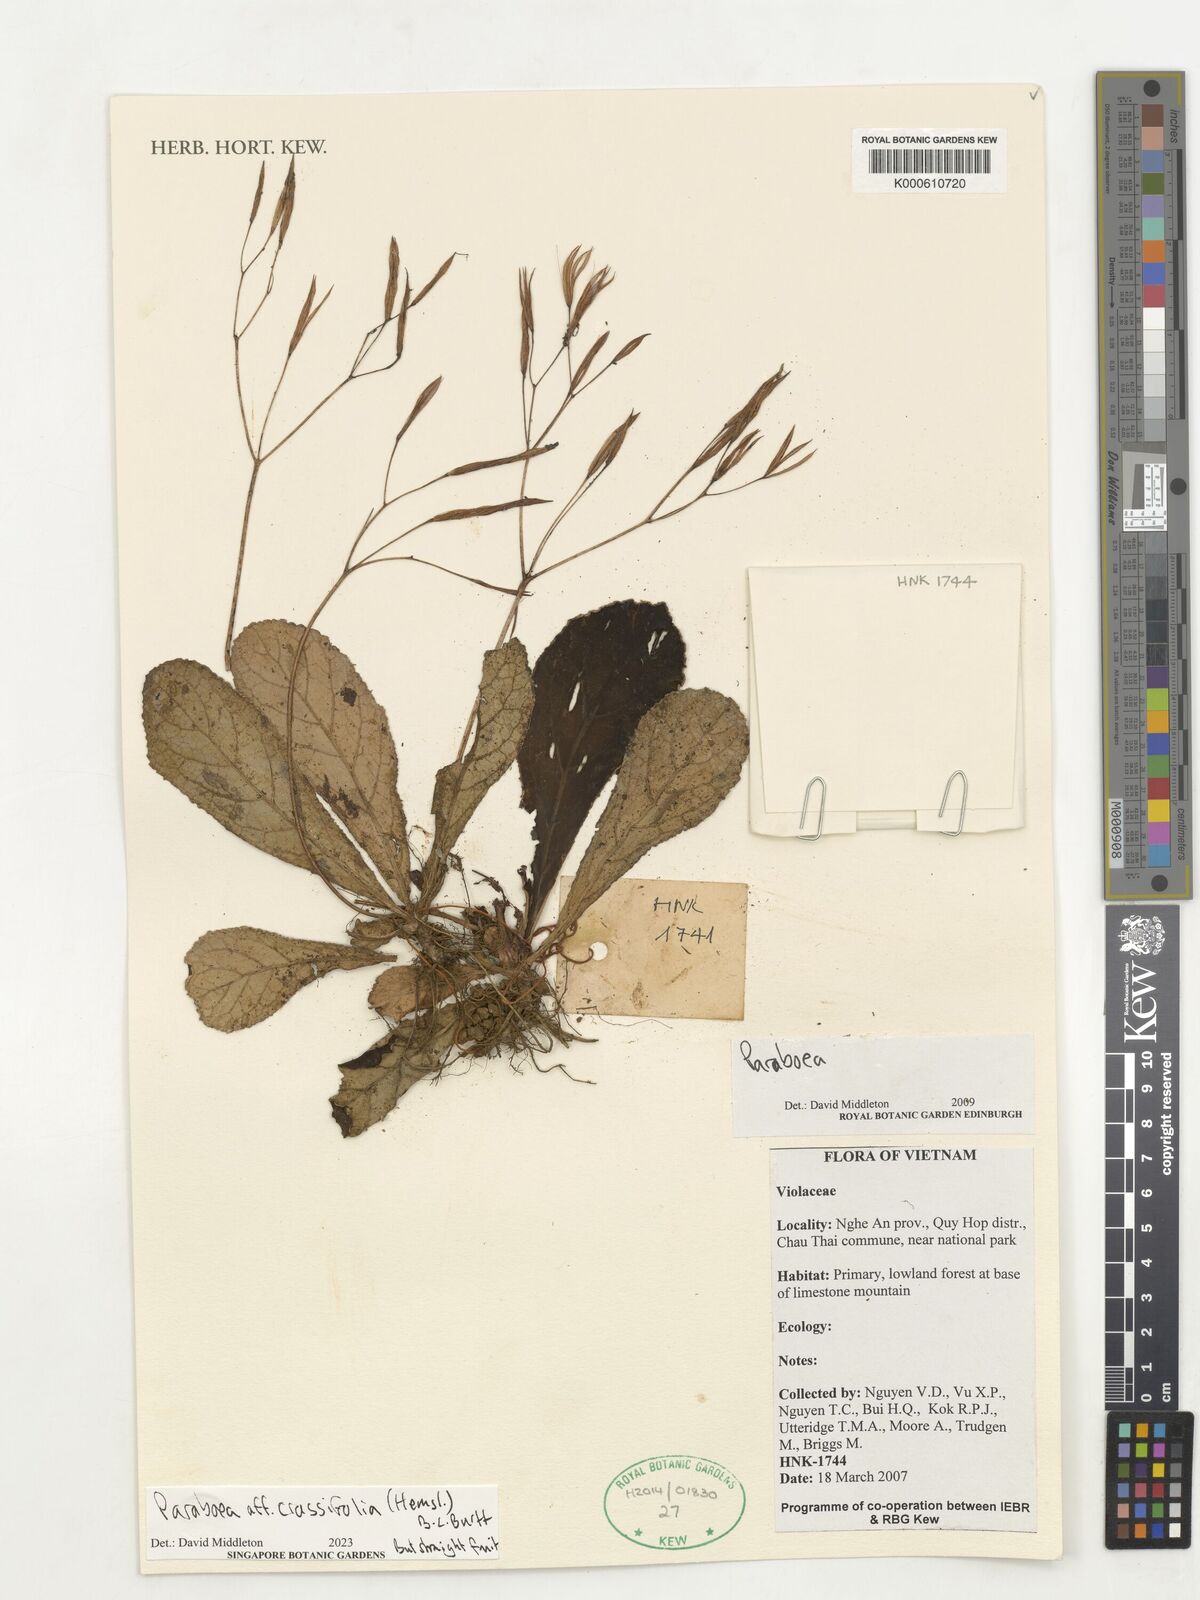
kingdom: Plantae
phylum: Tracheophyta
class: Magnoliopsida
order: Lamiales
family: Gesneriaceae
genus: Paraboea
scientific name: Paraboea crassifolia
